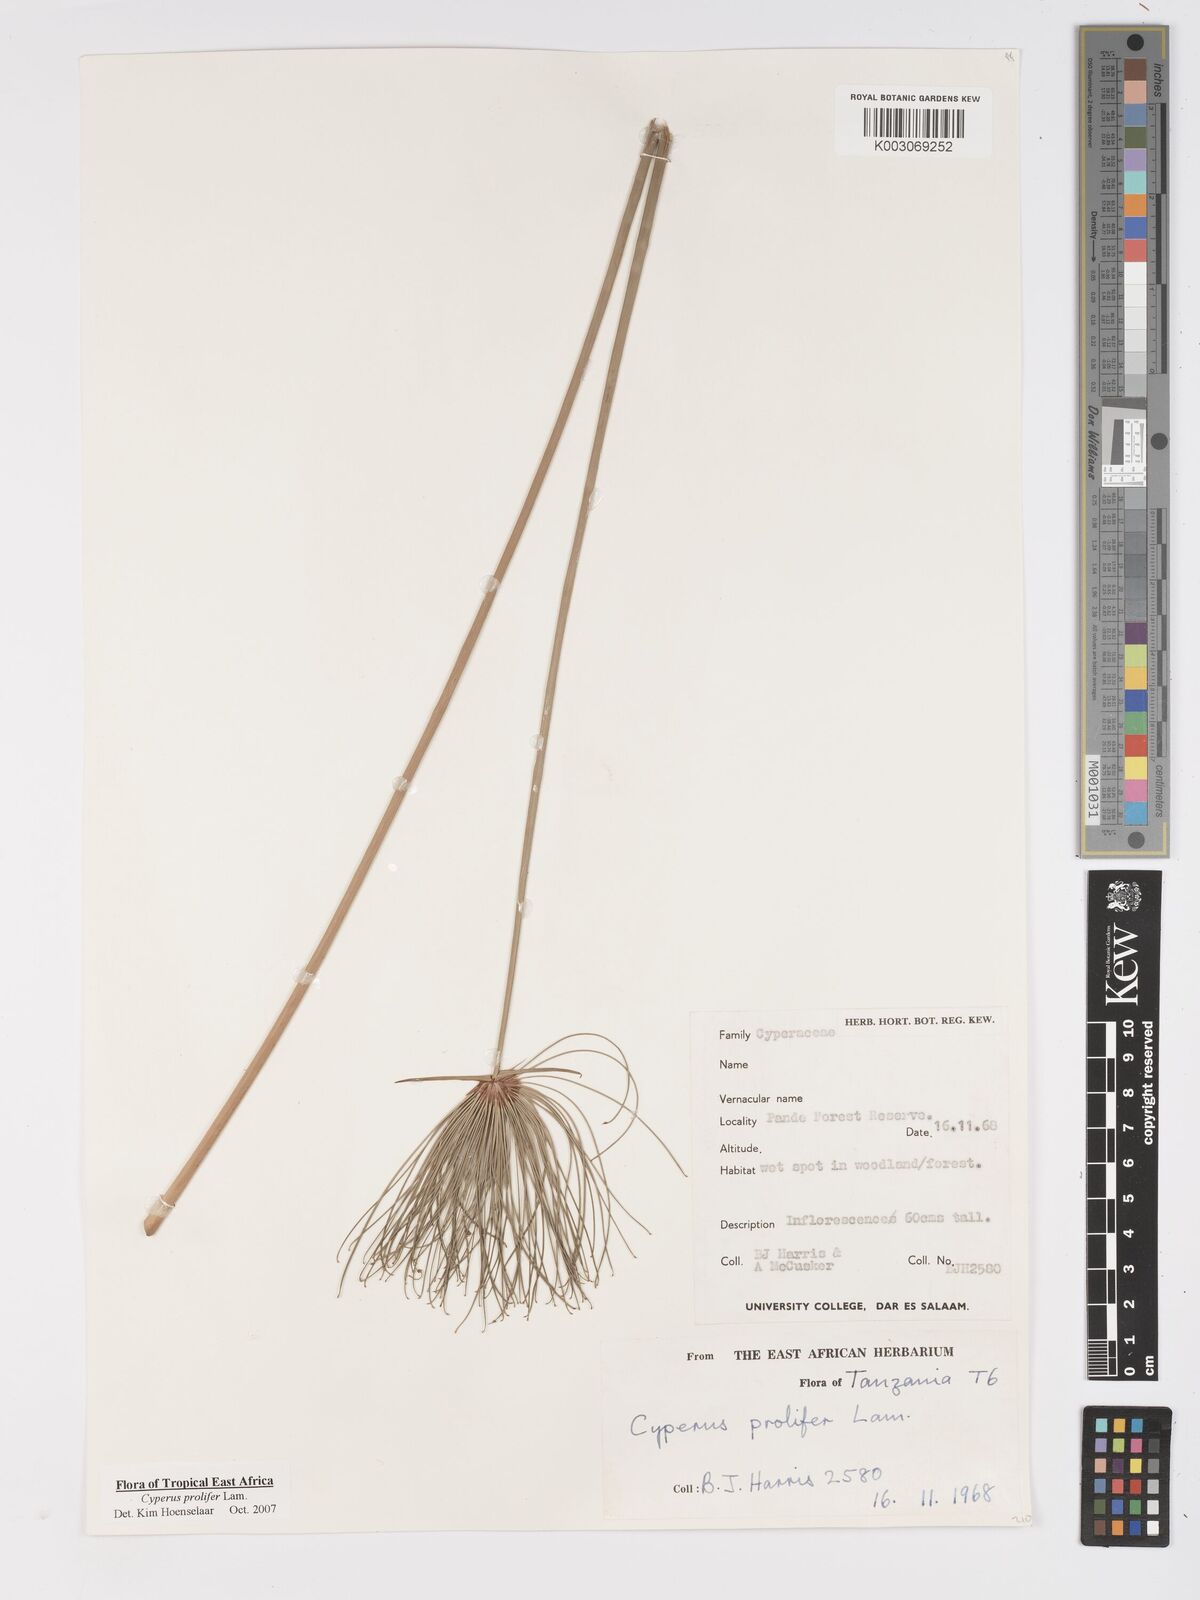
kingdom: Plantae
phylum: Tracheophyta
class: Liliopsida
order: Poales
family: Cyperaceae
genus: Cyperus
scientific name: Cyperus prolifer
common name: Miniature flatsedge
